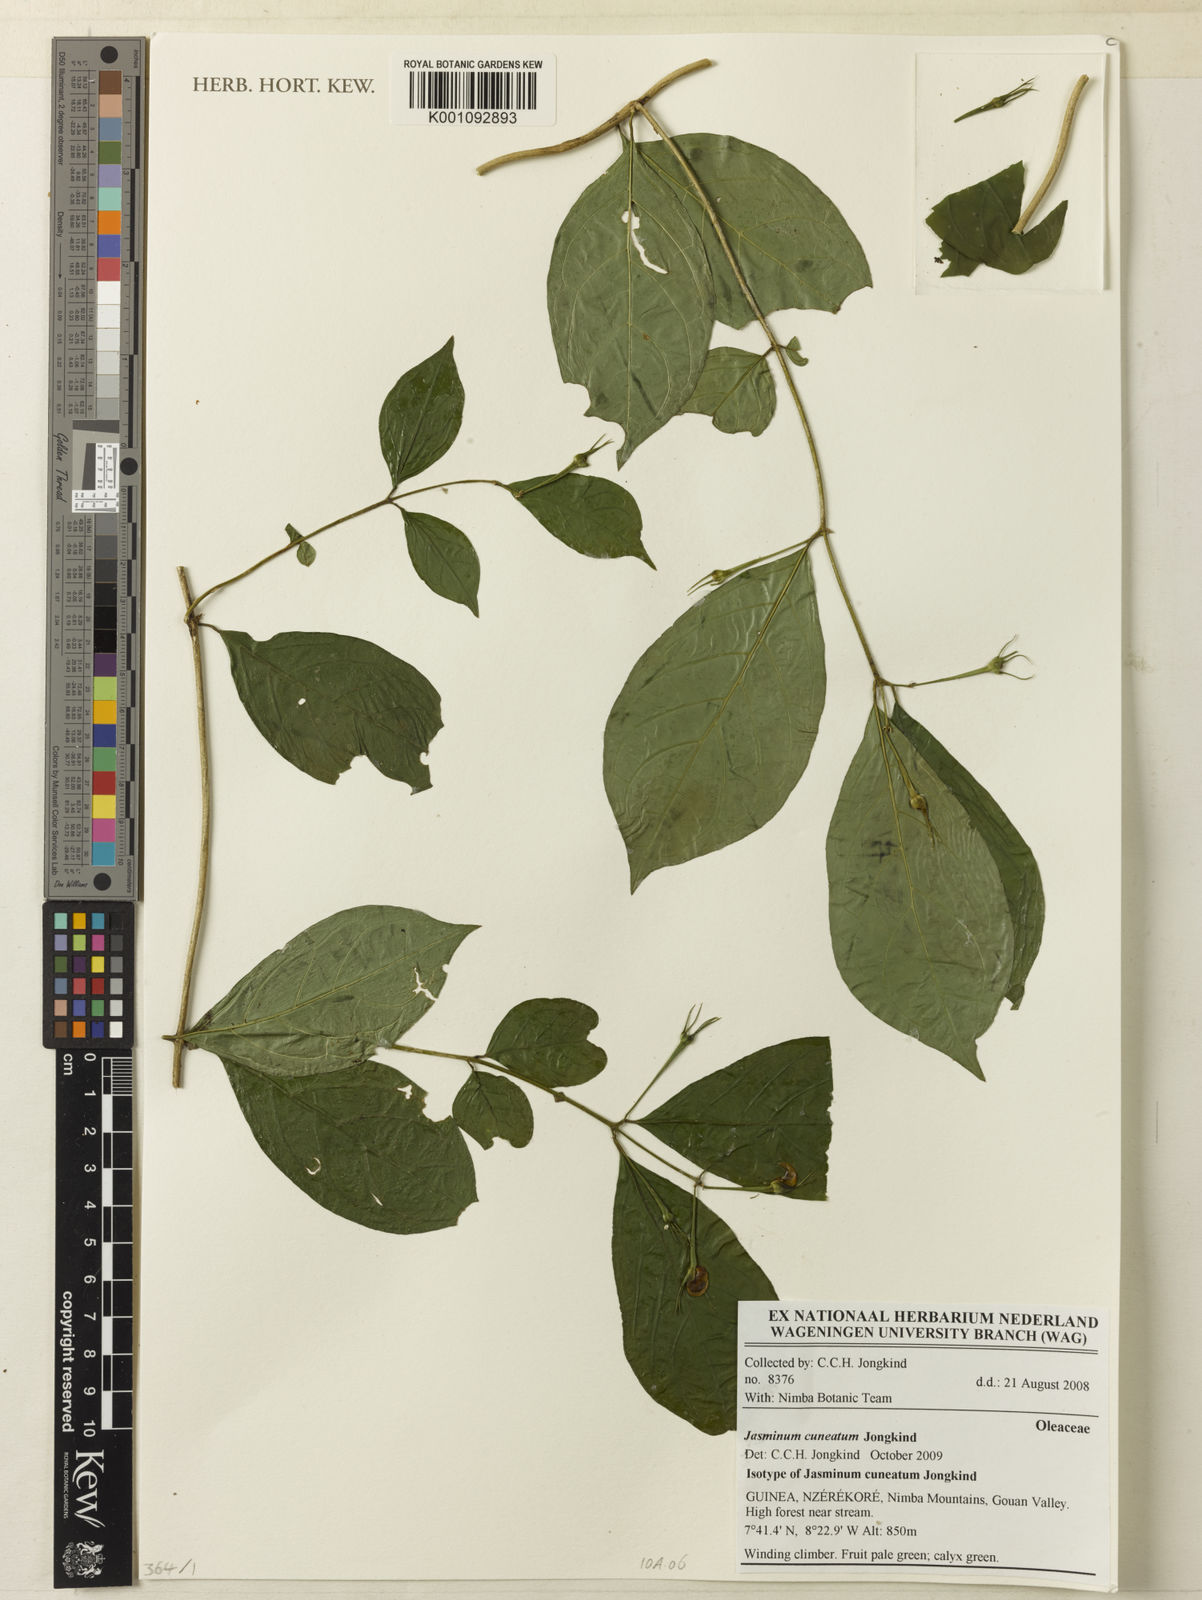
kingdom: Plantae
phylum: Tracheophyta
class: Magnoliopsida
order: Lamiales
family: Oleaceae
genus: Jasminum
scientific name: Jasminum dinklagei
